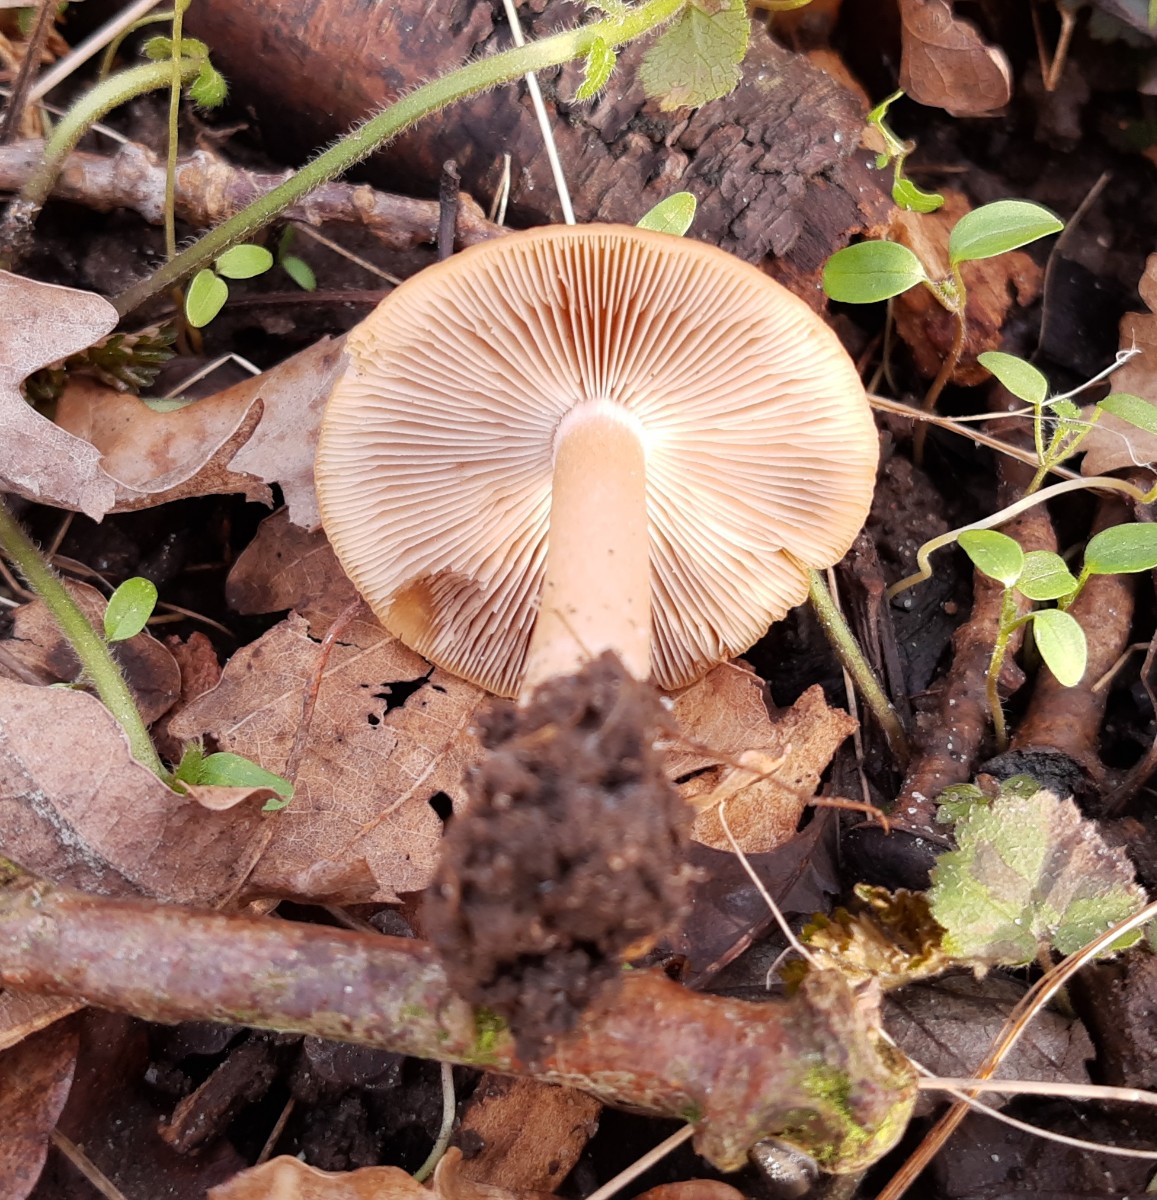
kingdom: Fungi
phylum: Basidiomycota
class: Agaricomycetes
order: Agaricales
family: Psathyrellaceae
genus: Psathyrella
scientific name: Psathyrella
